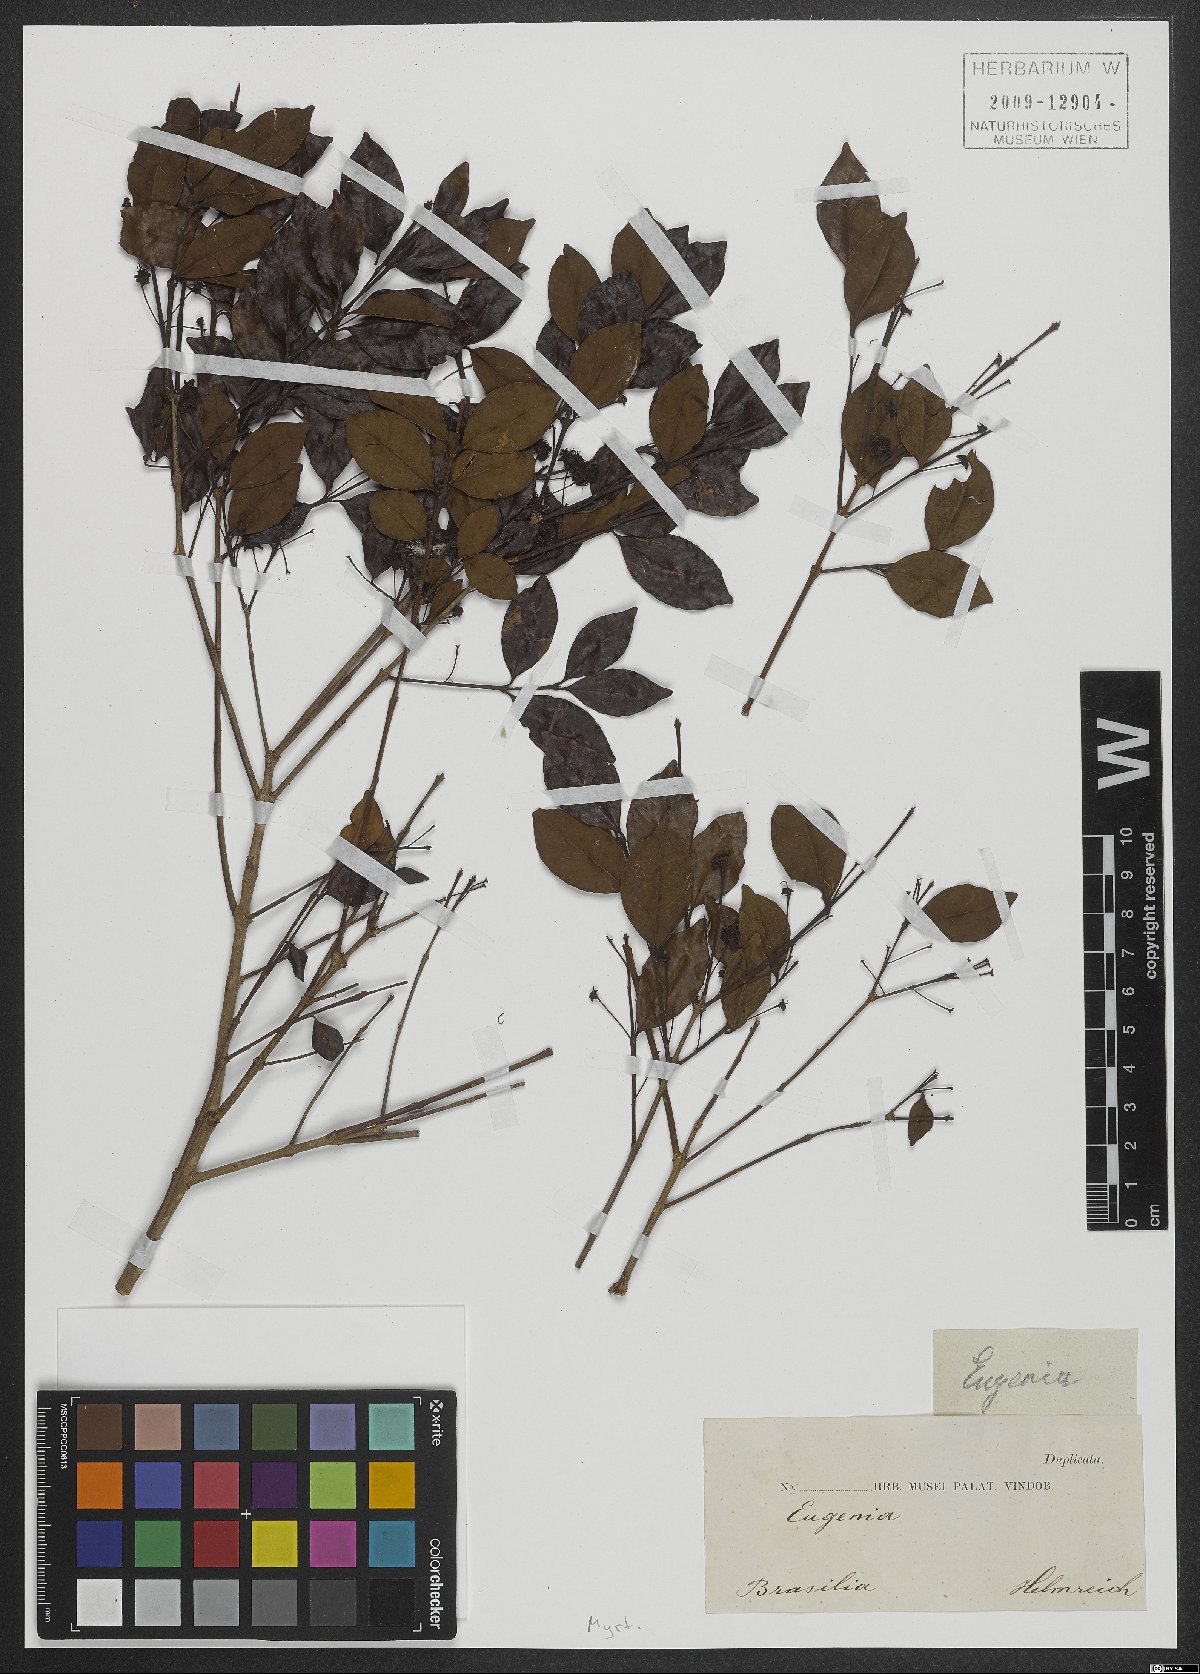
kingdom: Plantae
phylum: Tracheophyta
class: Magnoliopsida
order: Myrtales
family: Myrtaceae
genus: Eugenia
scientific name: Eugenia
